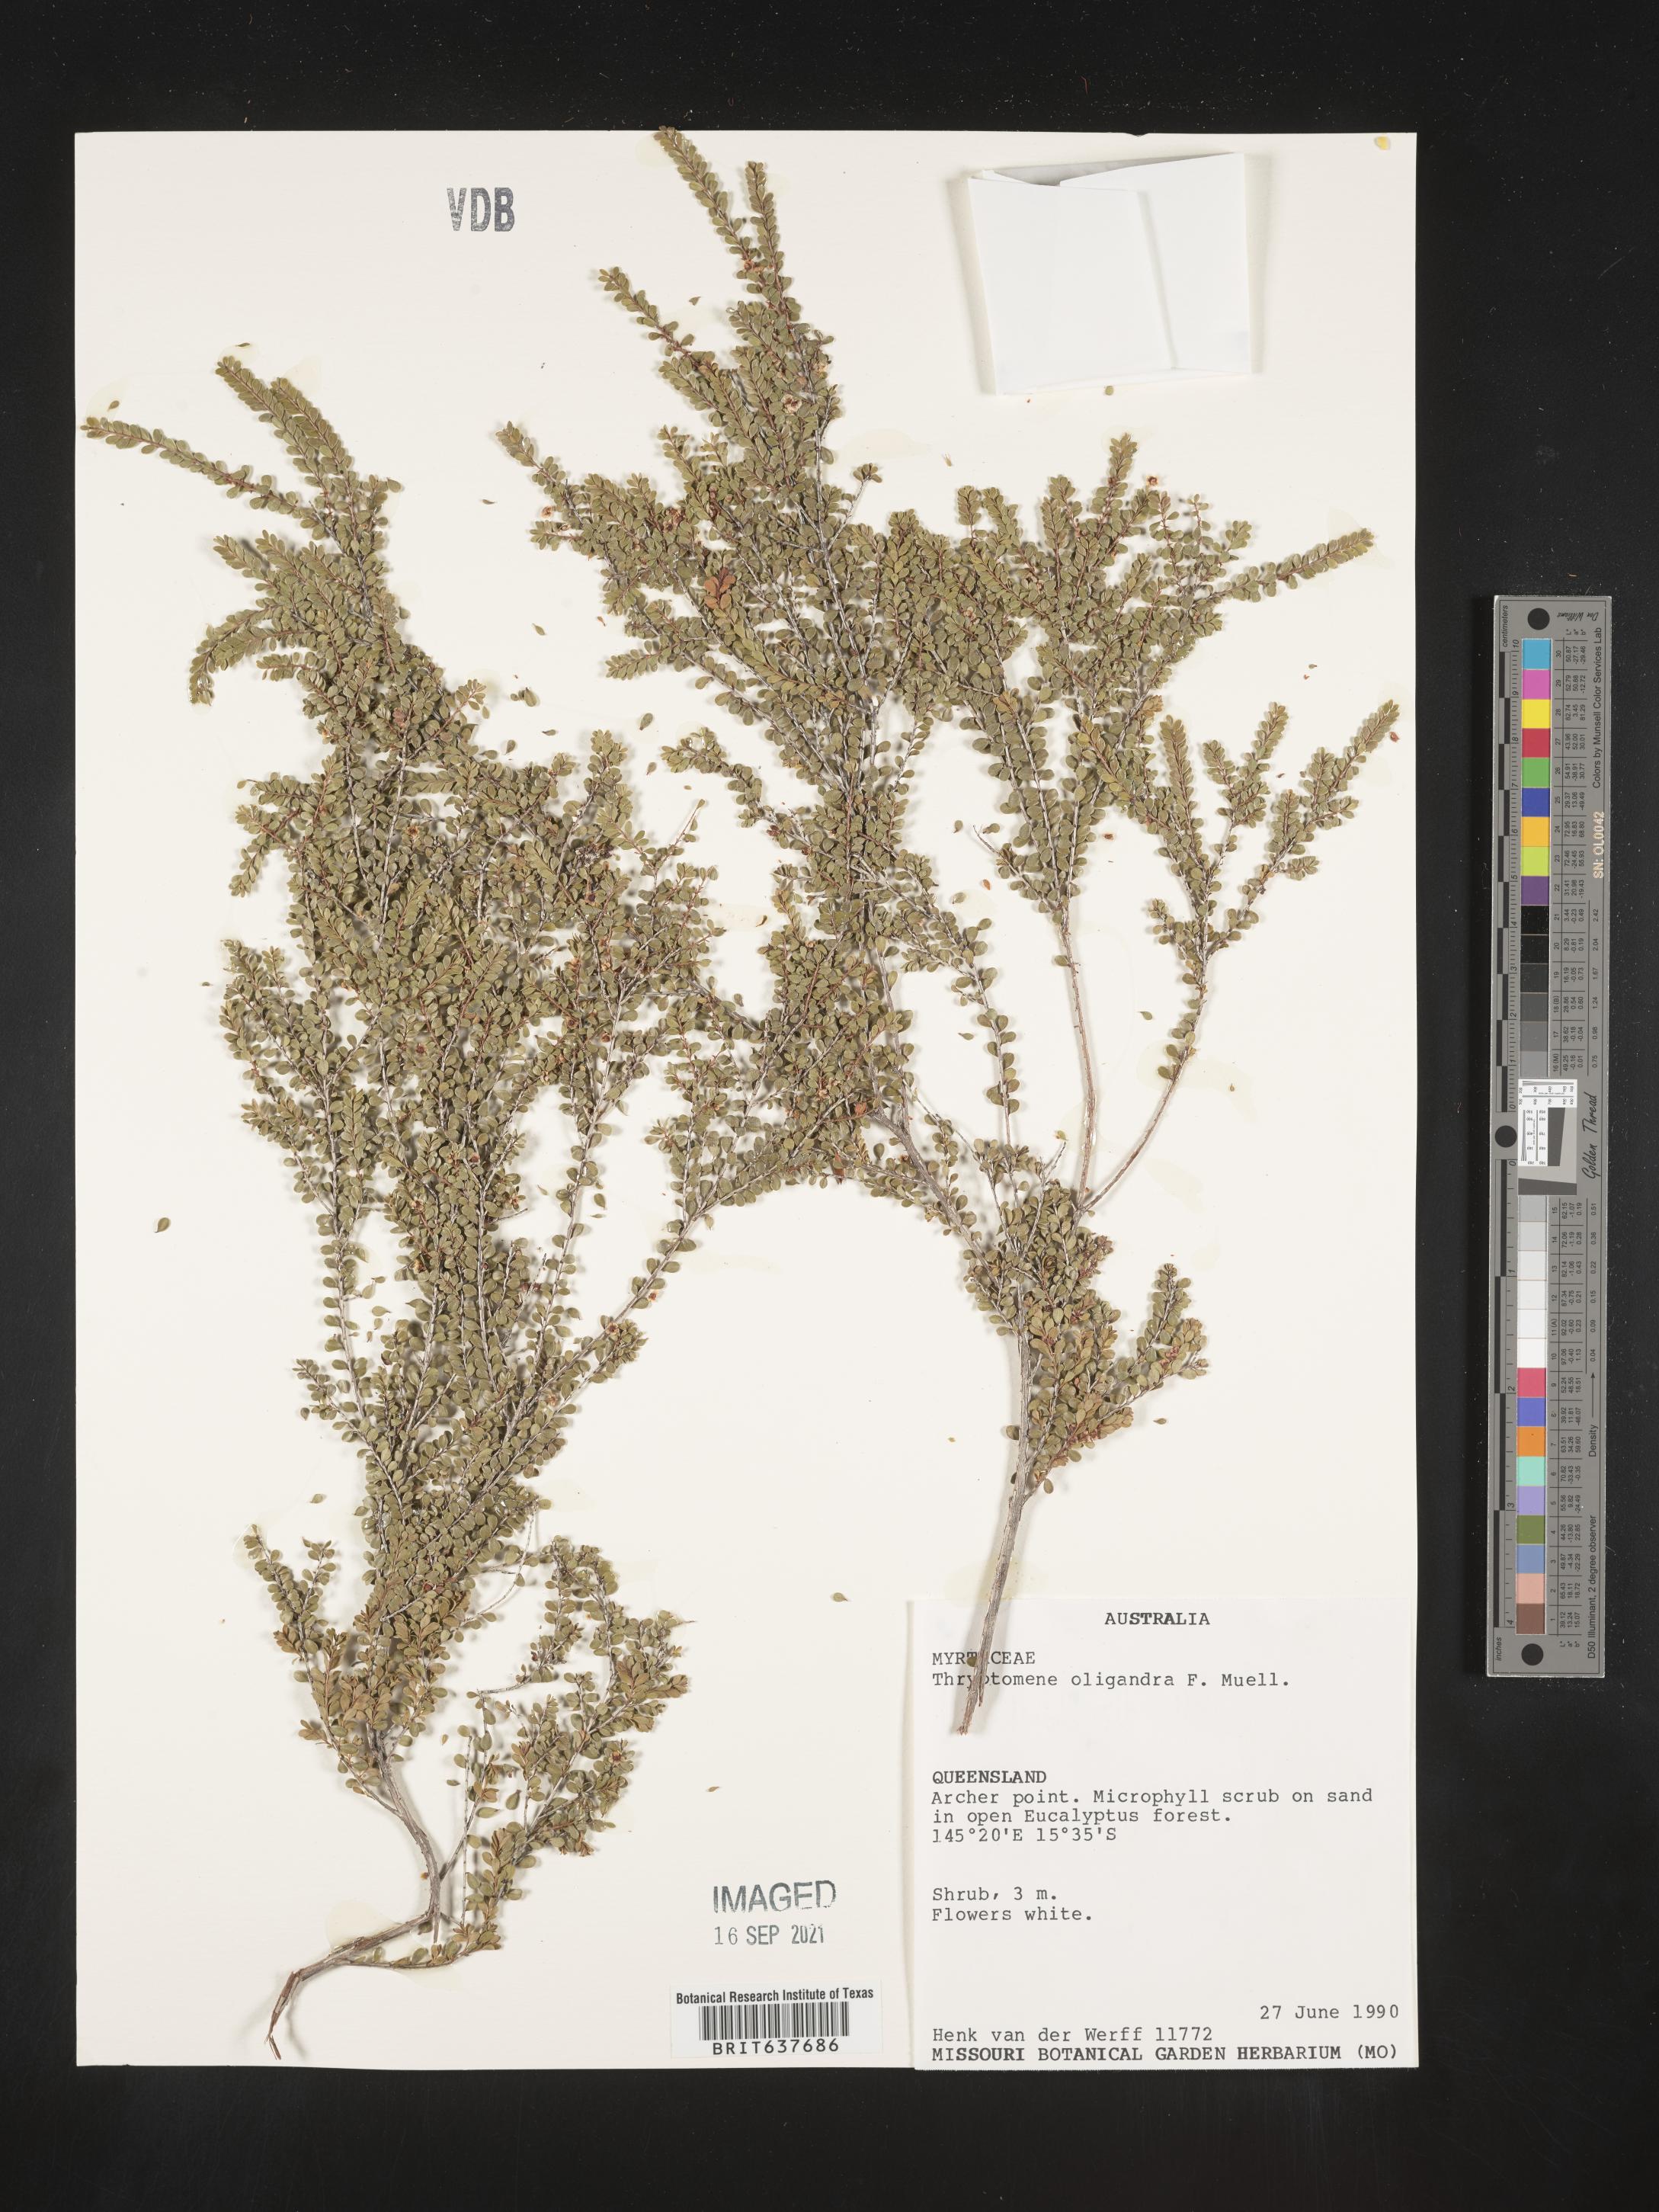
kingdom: Plantae
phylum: Tracheophyta
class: Magnoliopsida
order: Myrtales
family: Myrtaceae
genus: Thryptomene
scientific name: Thryptomene
